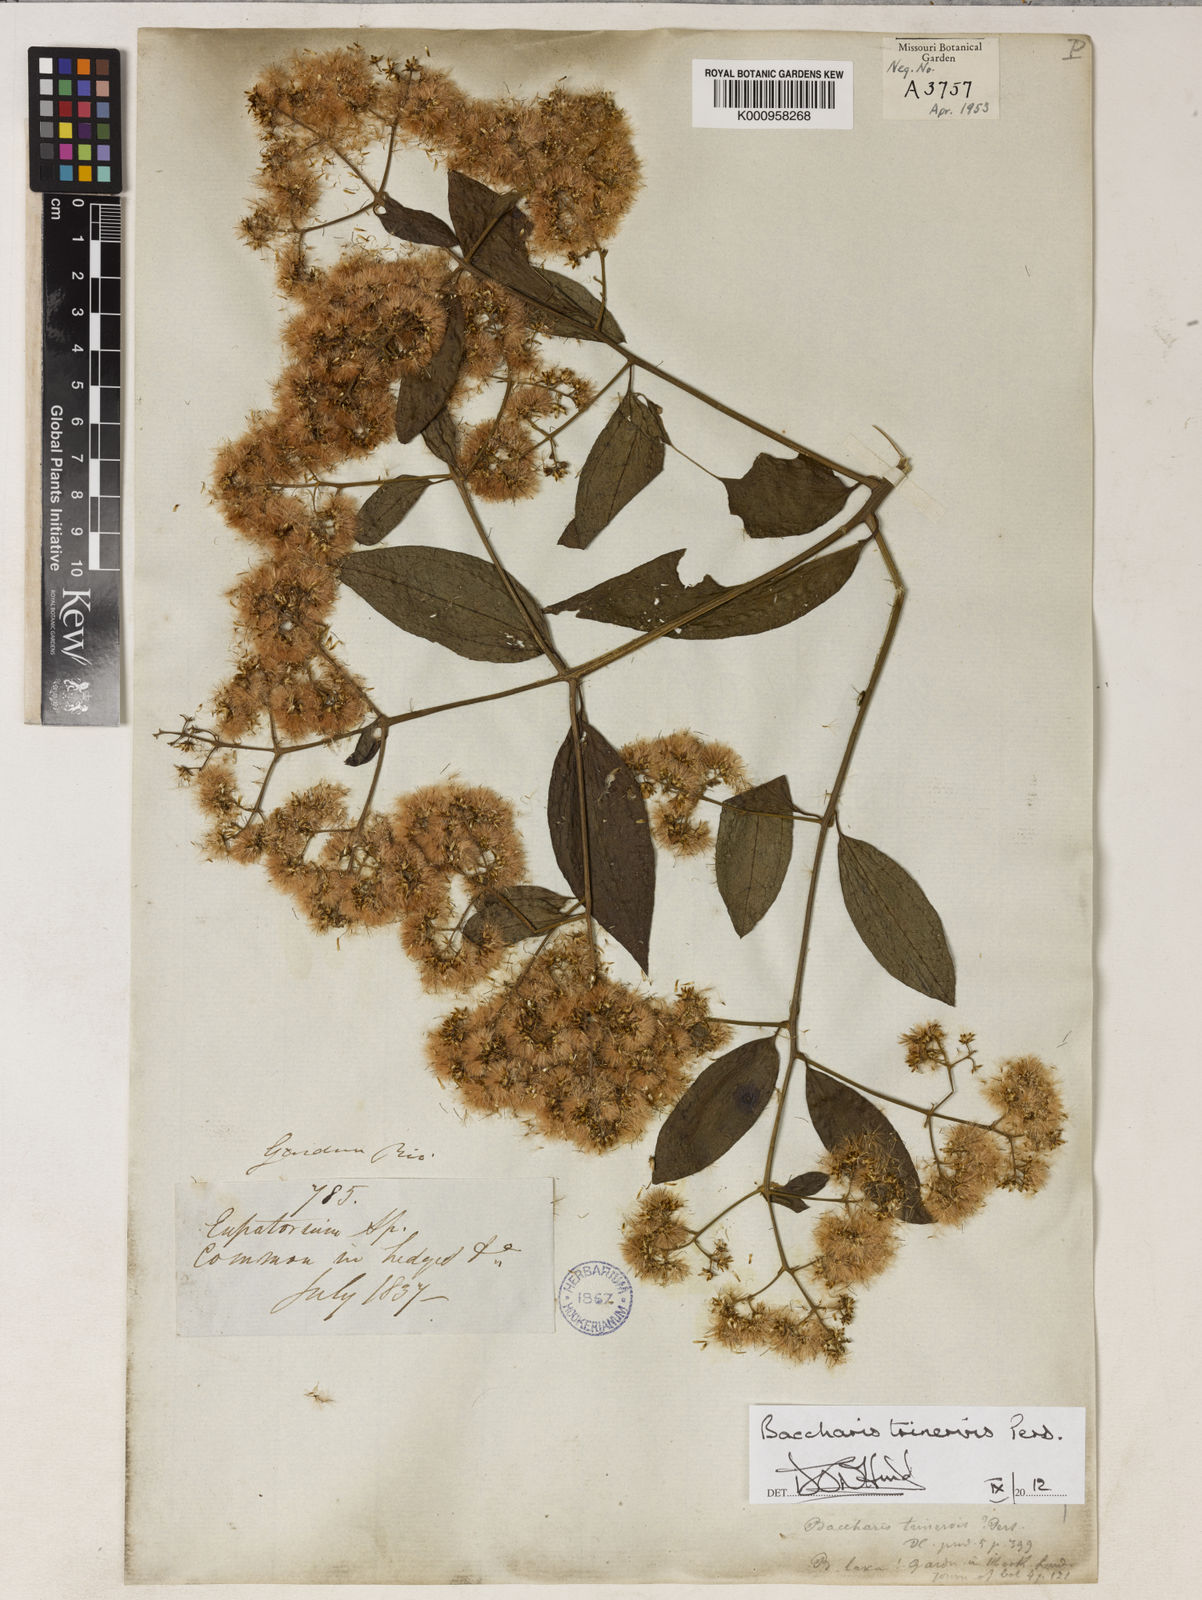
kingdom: Plantae
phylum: Tracheophyta
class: Magnoliopsida
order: Asterales
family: Asteraceae
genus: Baccharis
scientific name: Baccharis trinervis
